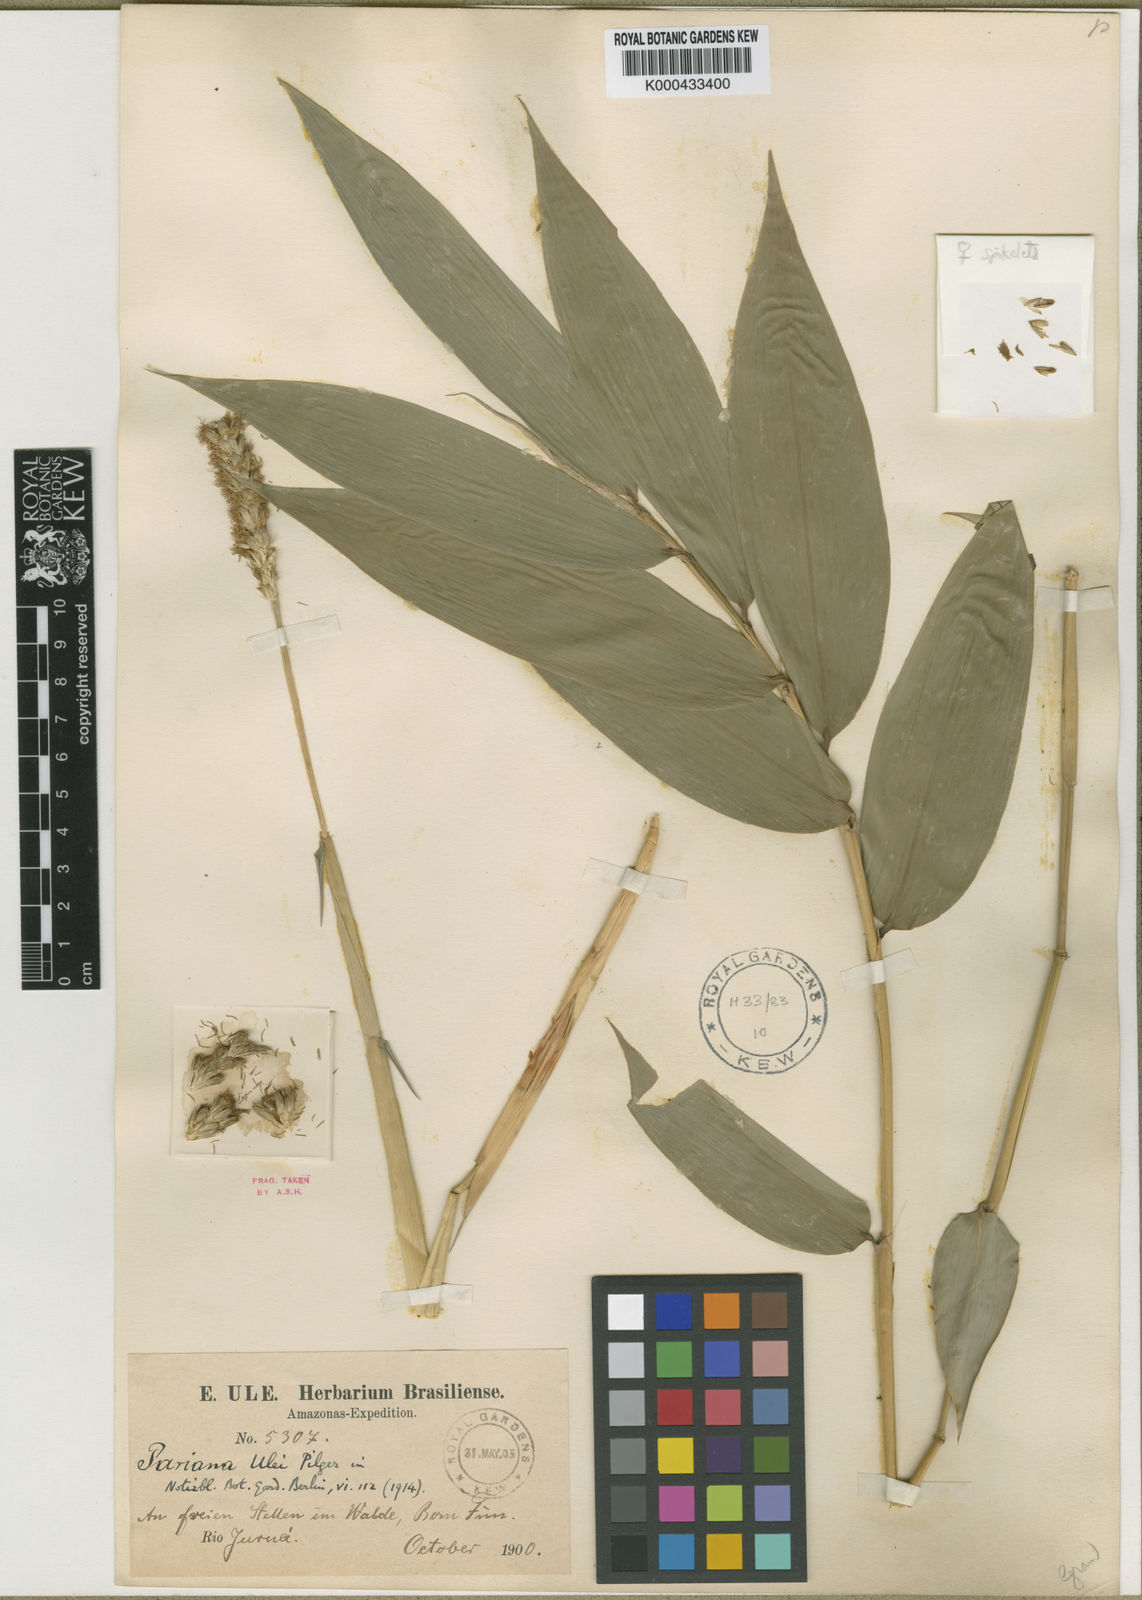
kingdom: Plantae
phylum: Tracheophyta
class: Liliopsida
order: Poales
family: Poaceae
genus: Pariana
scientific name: Pariana ulei
